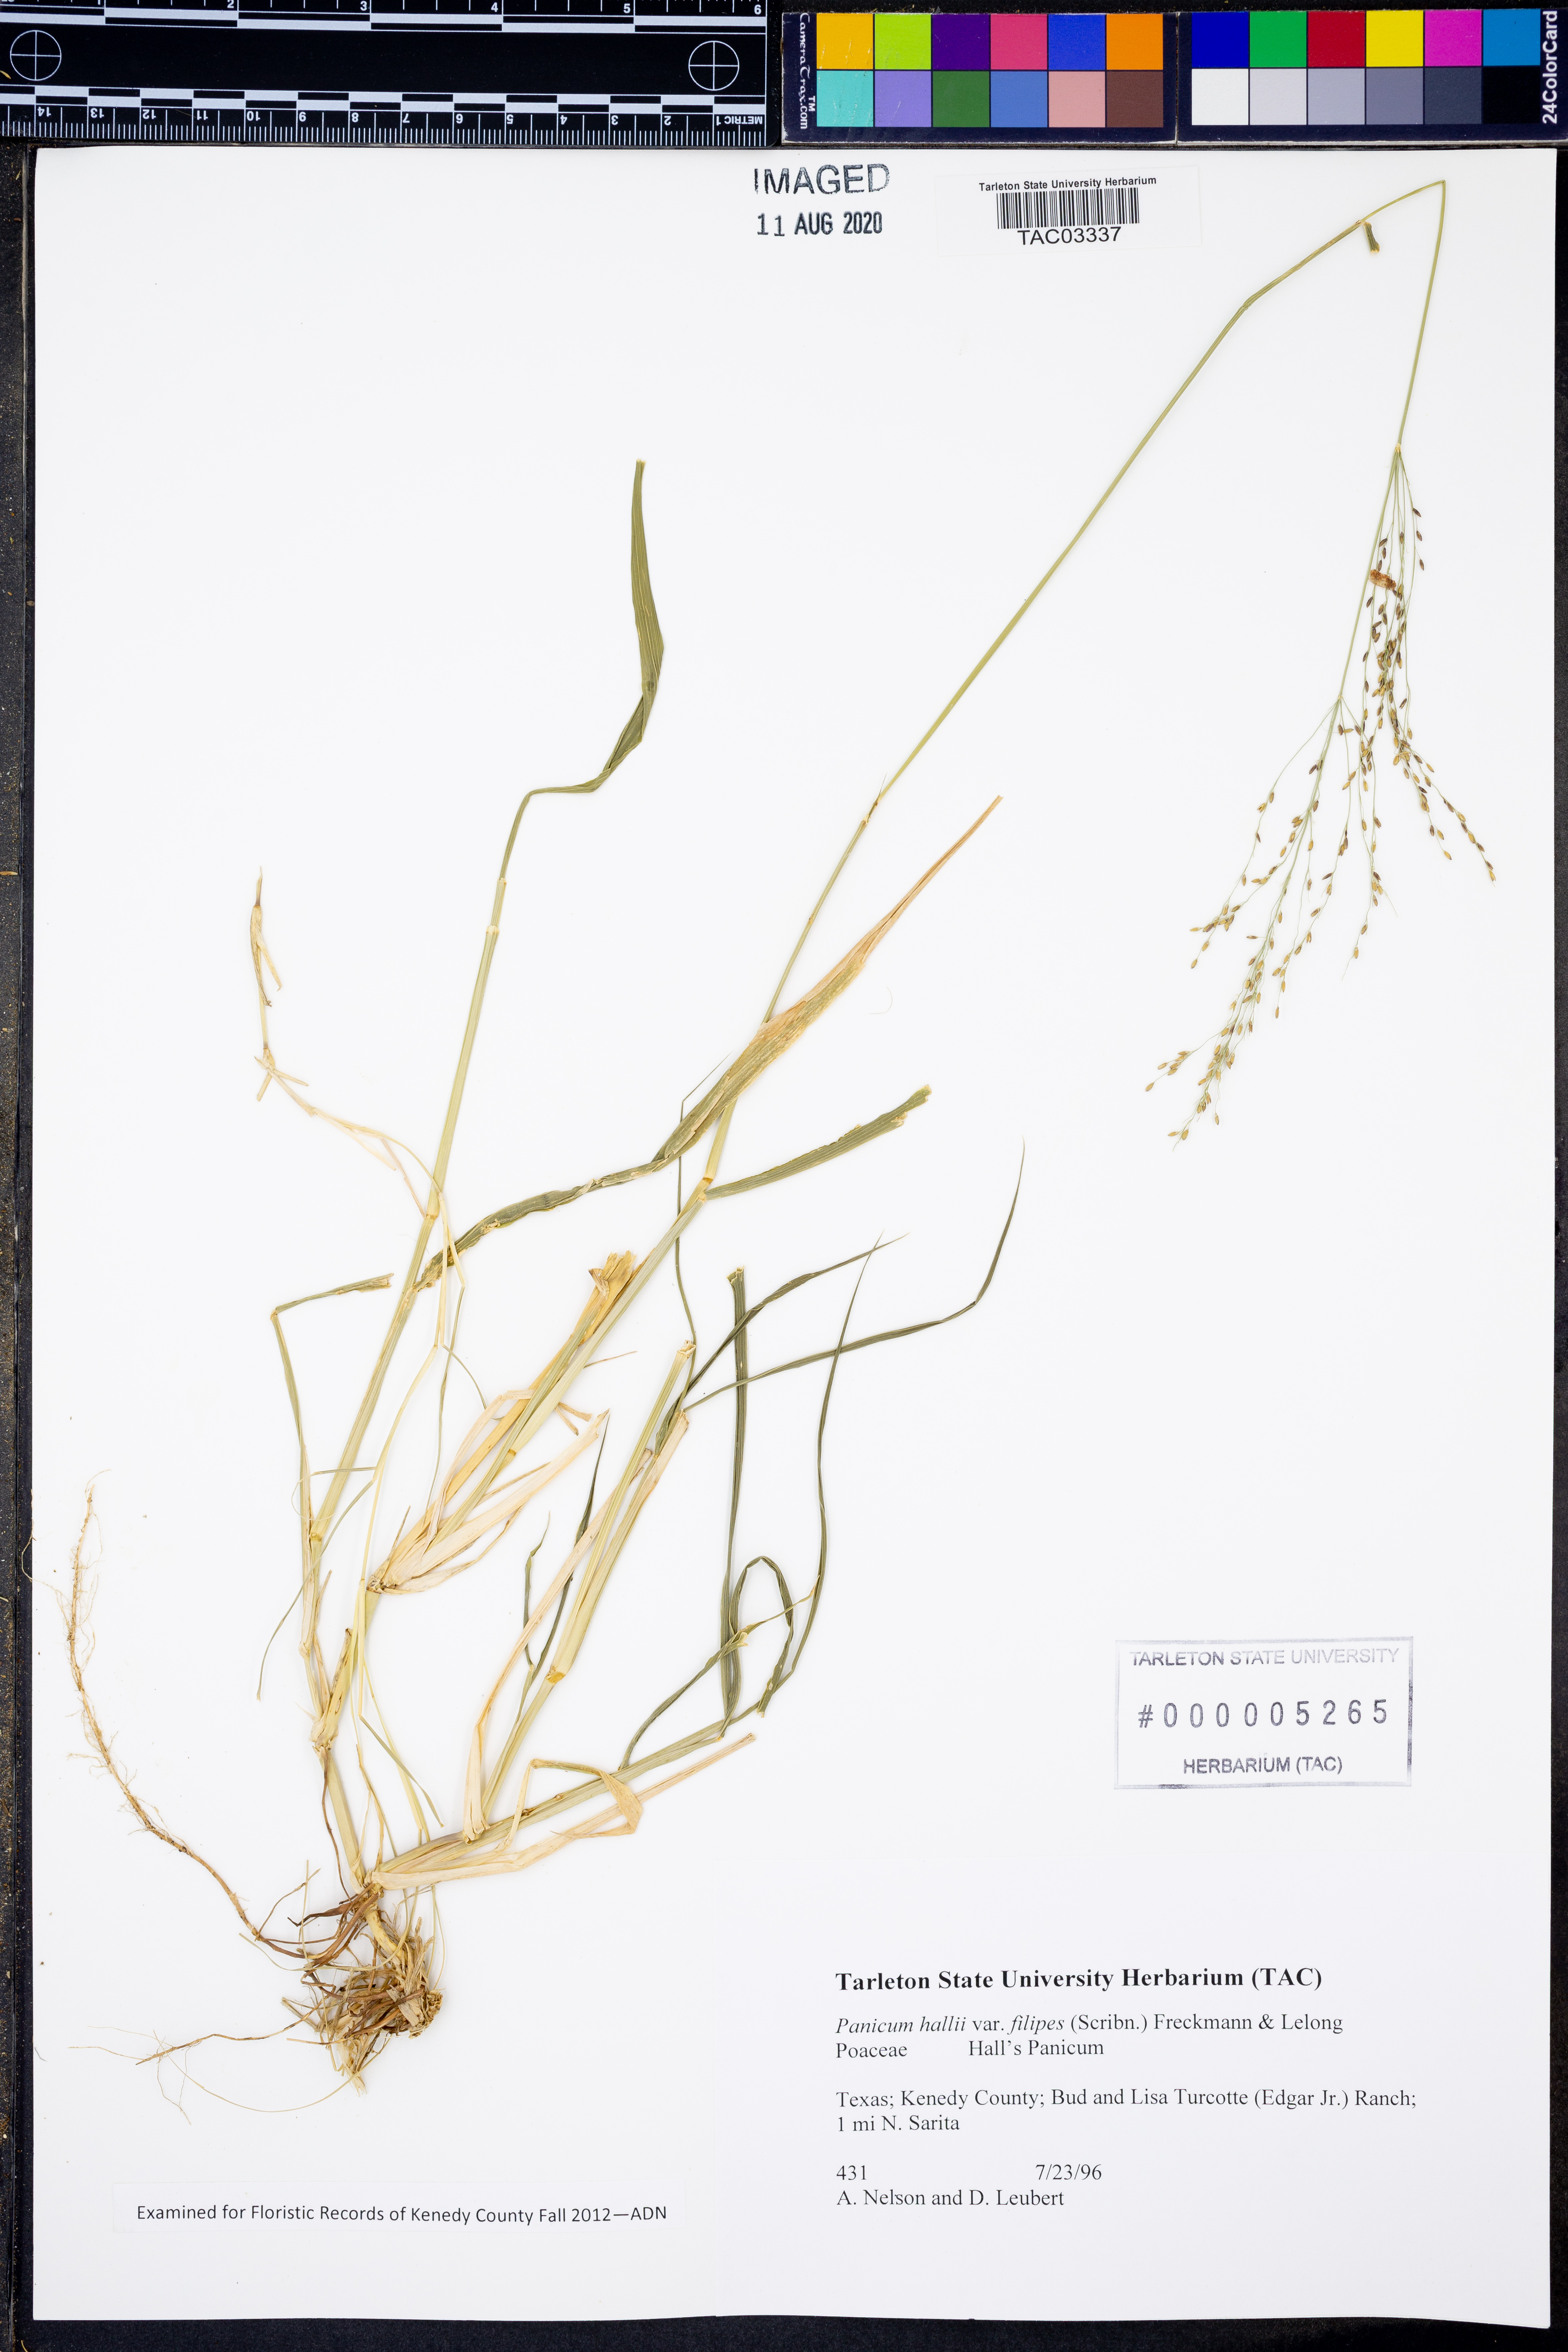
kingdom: Plantae
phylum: Tracheophyta
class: Liliopsida
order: Poales
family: Poaceae
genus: Panicum
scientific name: Panicum hallii
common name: Hall's witchgrass
